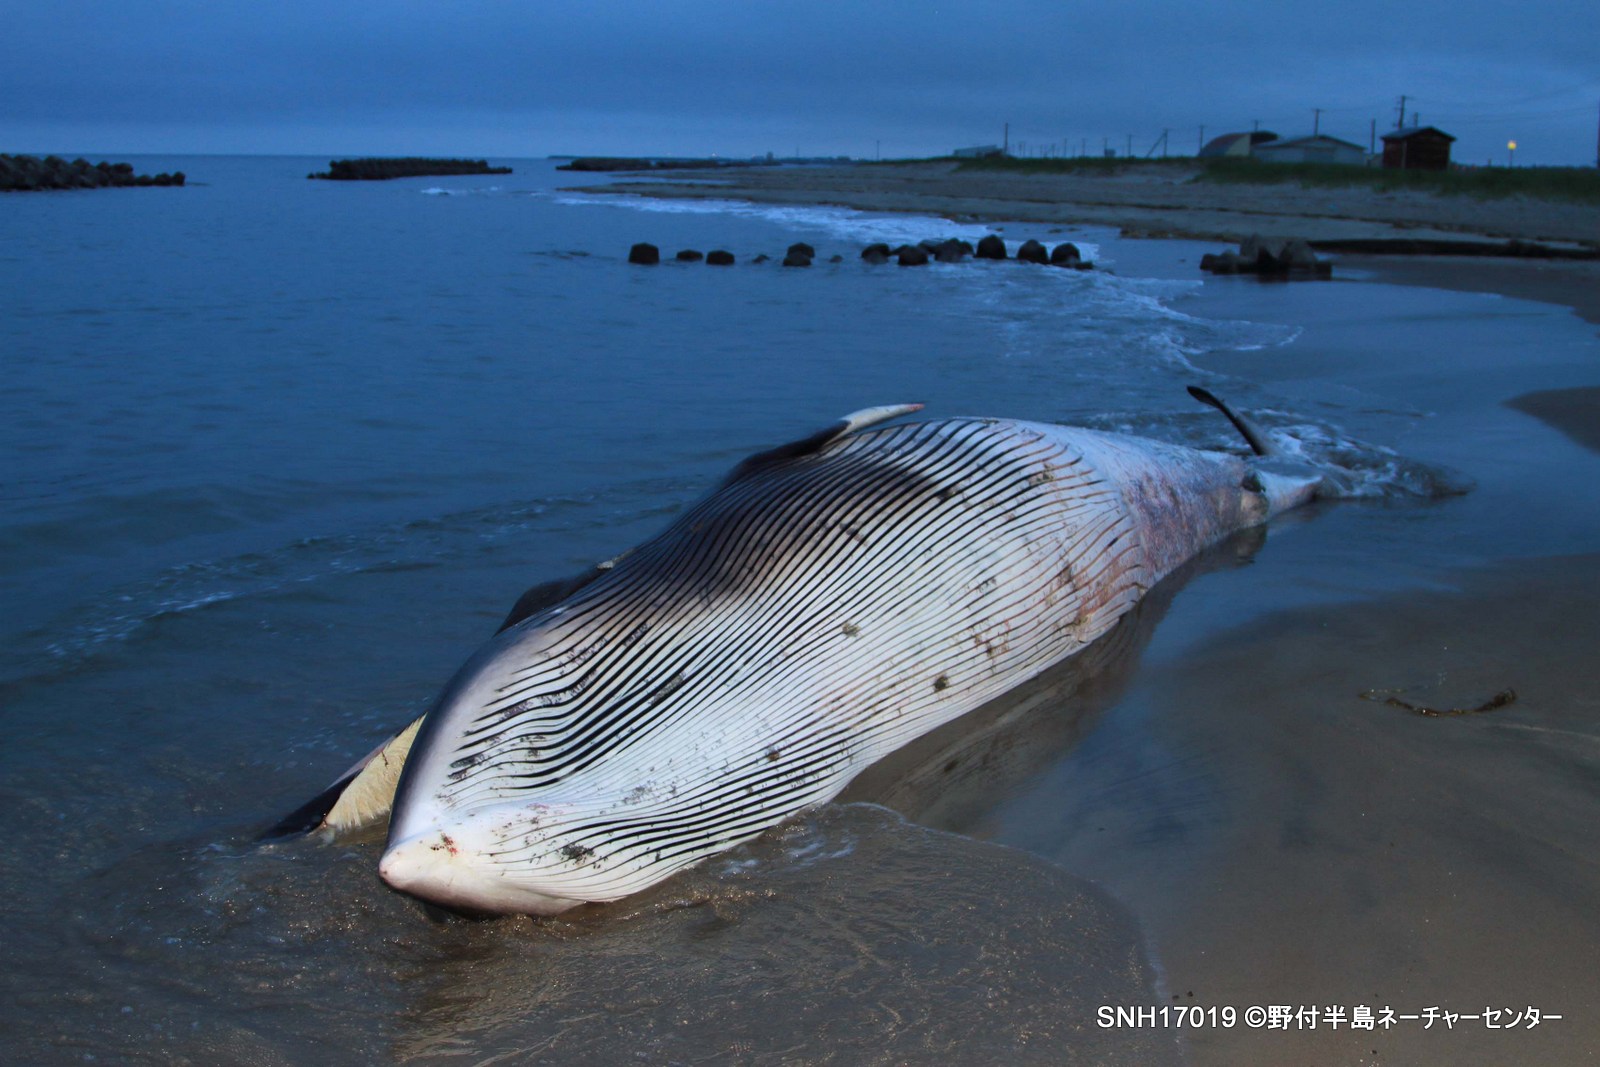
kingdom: Animalia
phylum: Chordata
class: Mammalia
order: Cetacea
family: Balaenopteridae
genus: Balaenoptera
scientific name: Balaenoptera acutorostrata
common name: Minke whale
